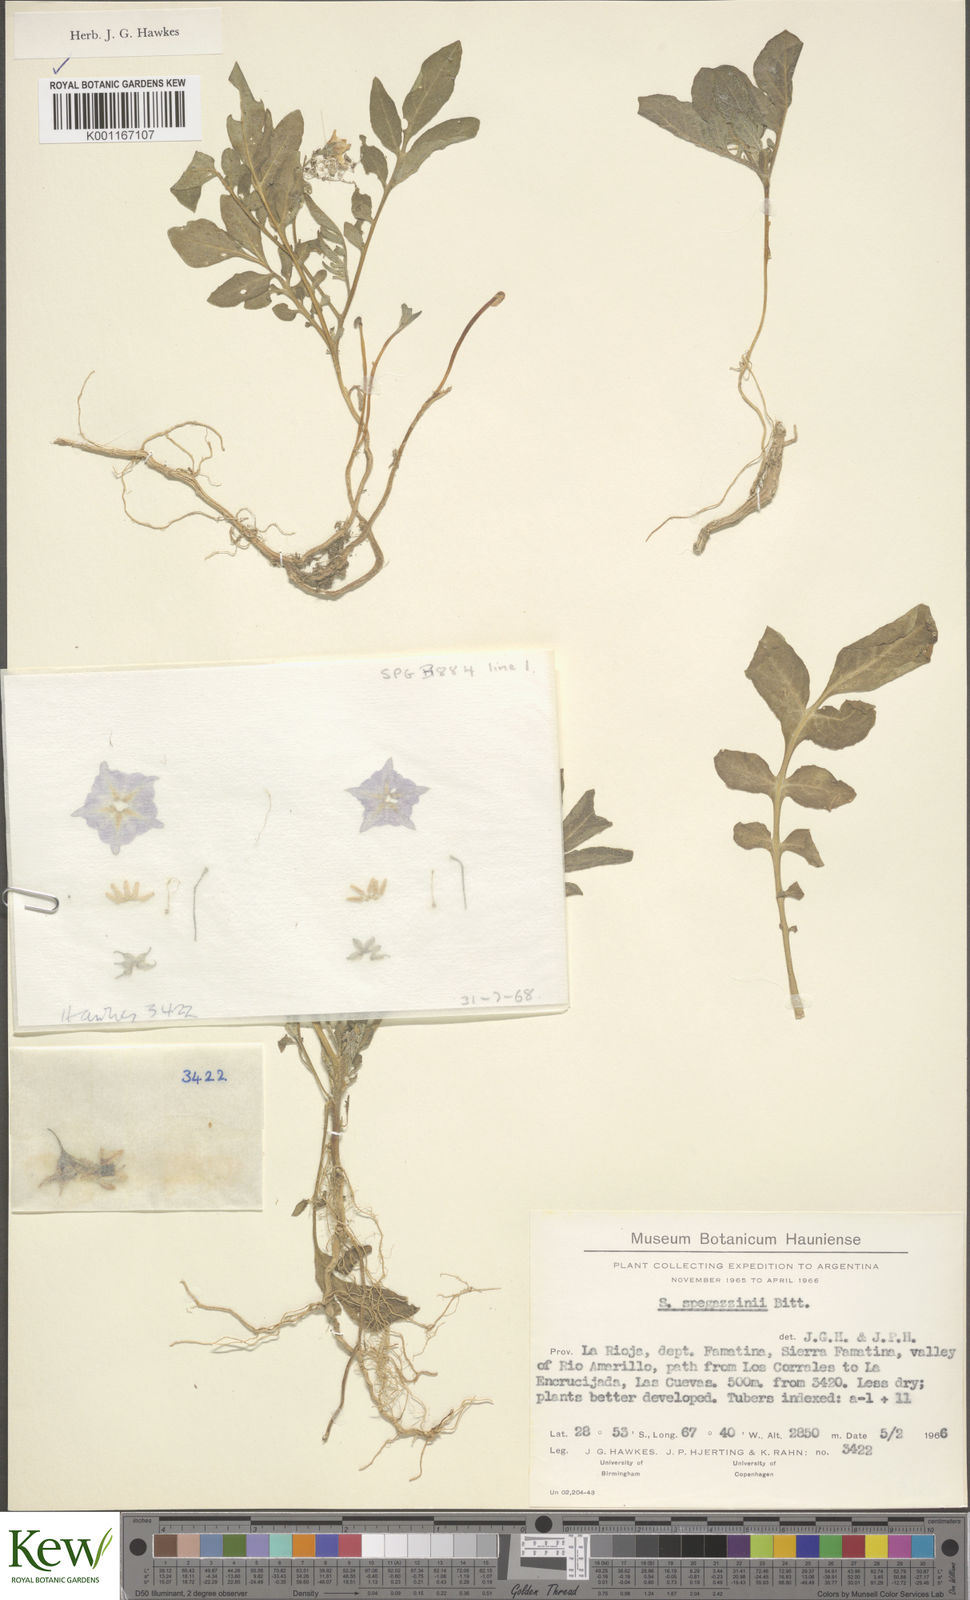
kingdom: Plantae
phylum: Tracheophyta
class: Magnoliopsida
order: Solanales
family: Solanaceae
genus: Solanum
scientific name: Solanum brevicaule
